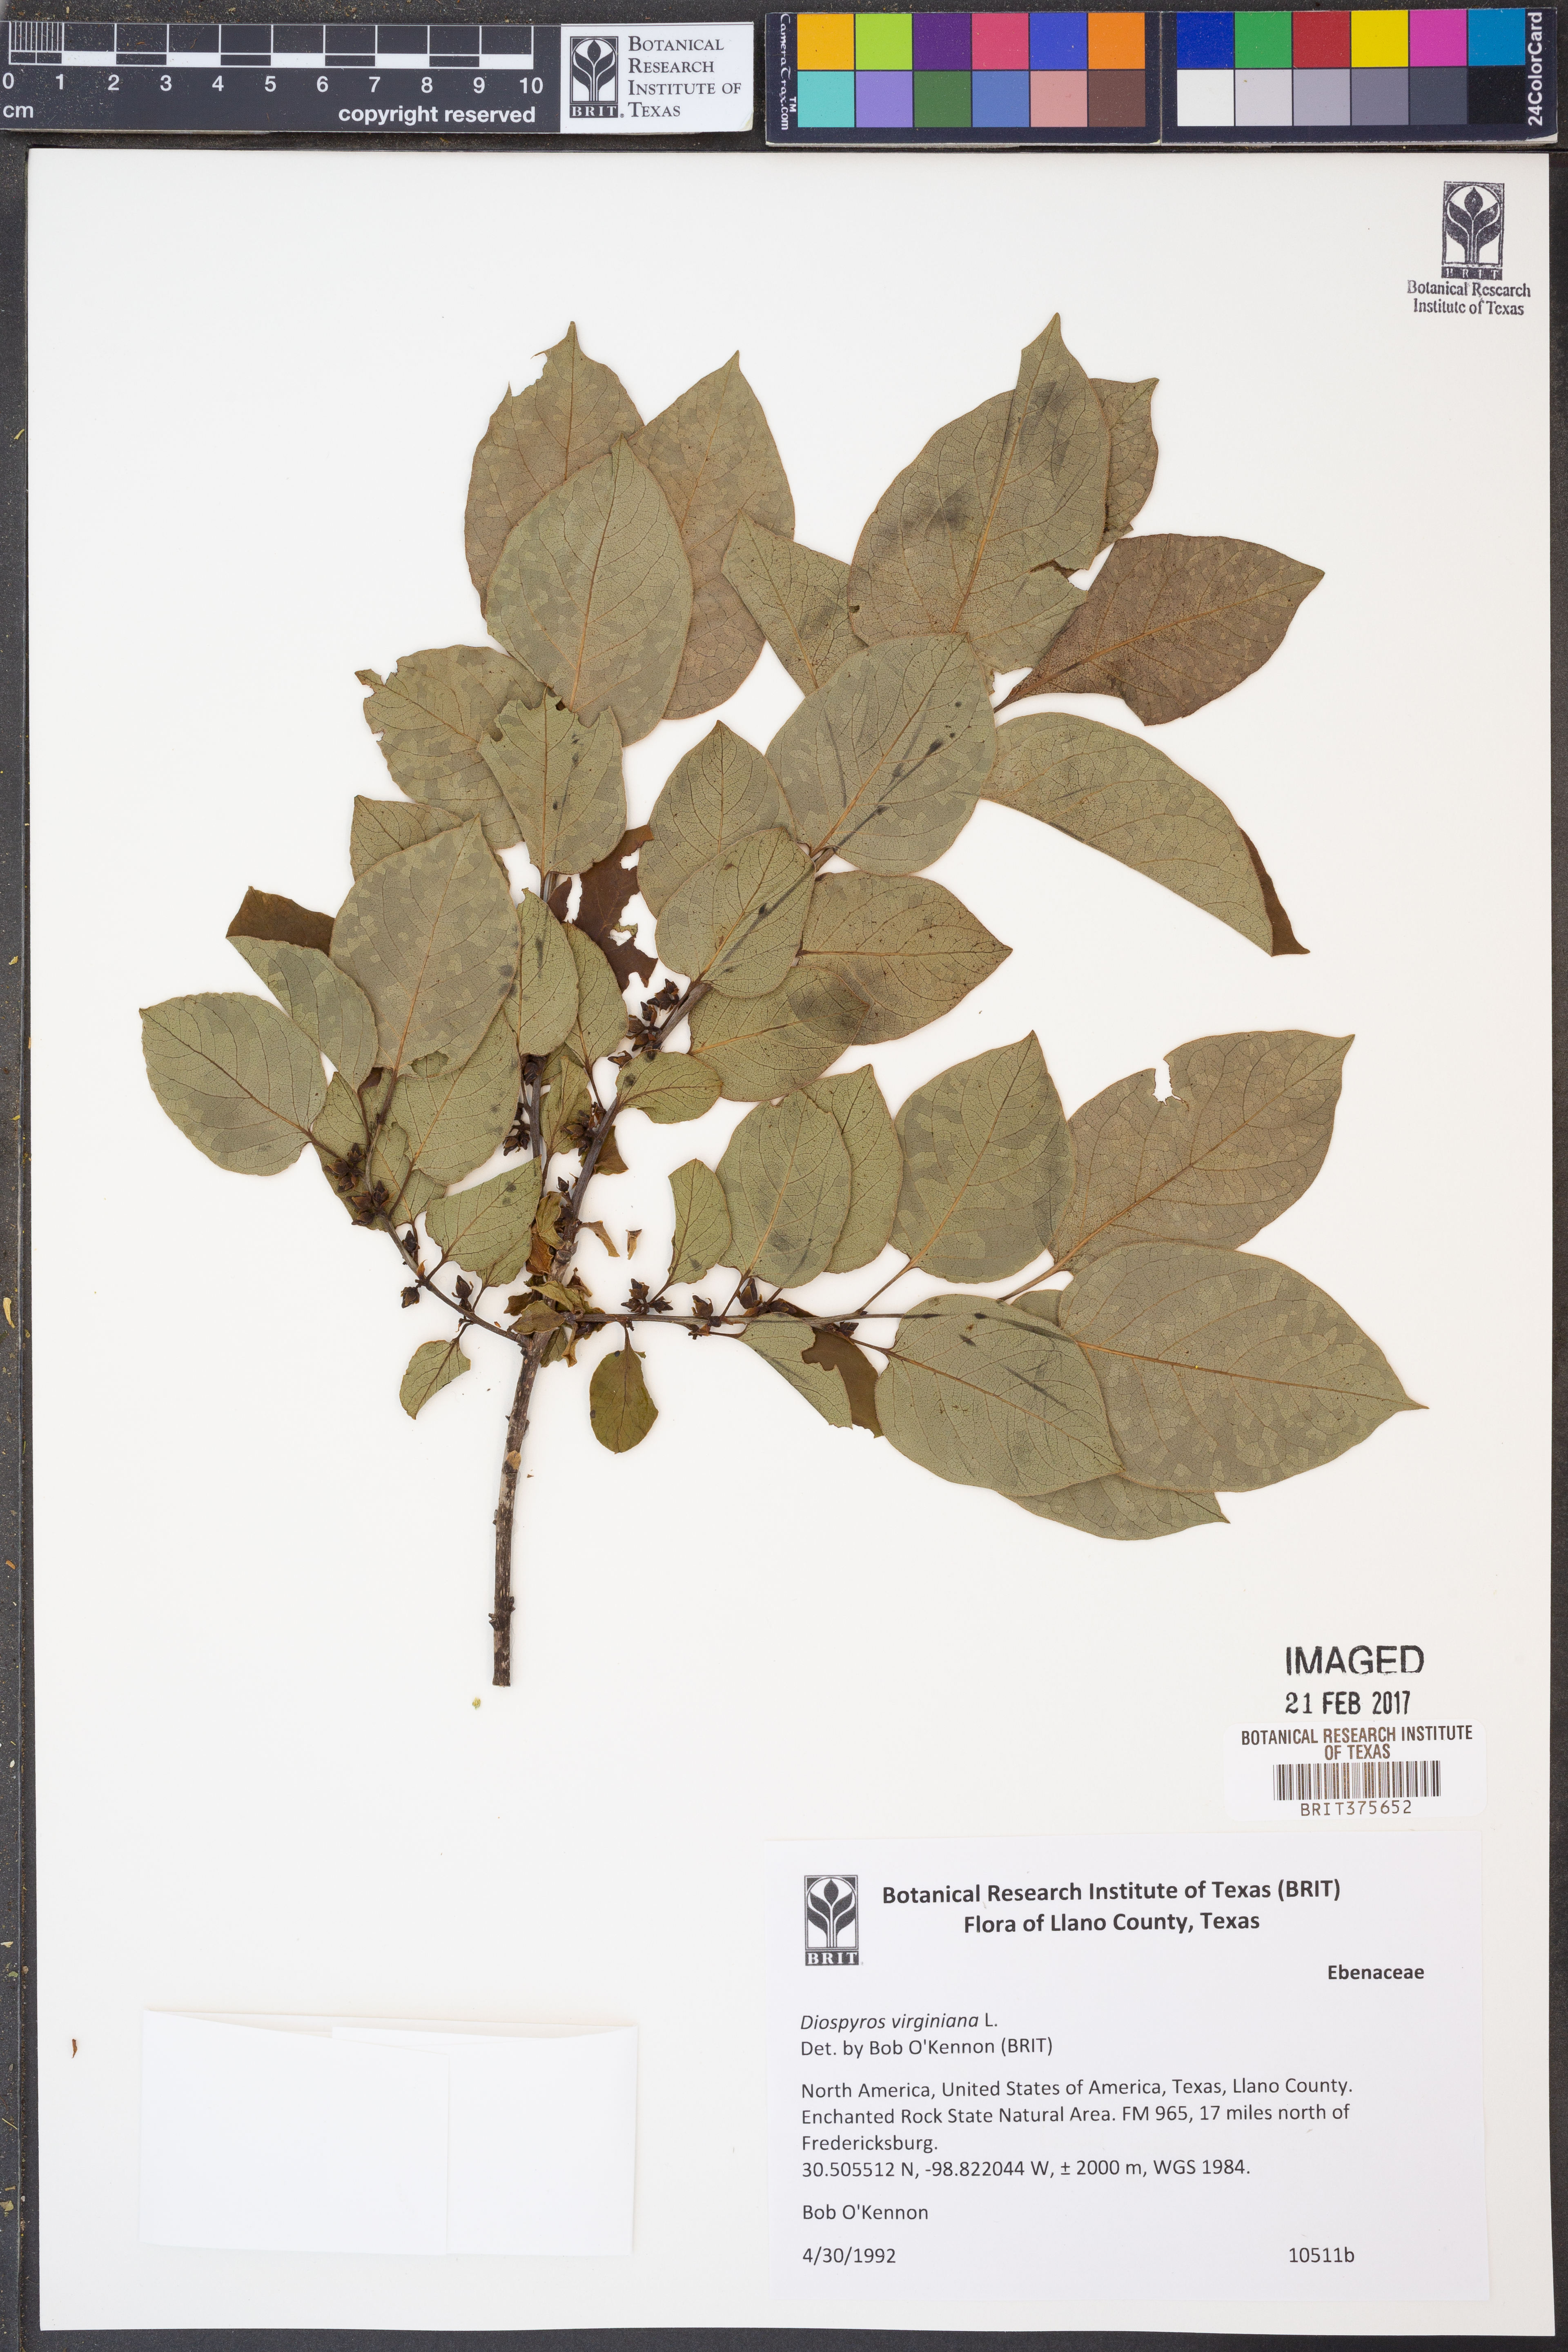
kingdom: Plantae
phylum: Tracheophyta
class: Magnoliopsida
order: Ericales
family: Ebenaceae
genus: Diospyros
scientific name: Diospyros virginiana
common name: Persimmon
